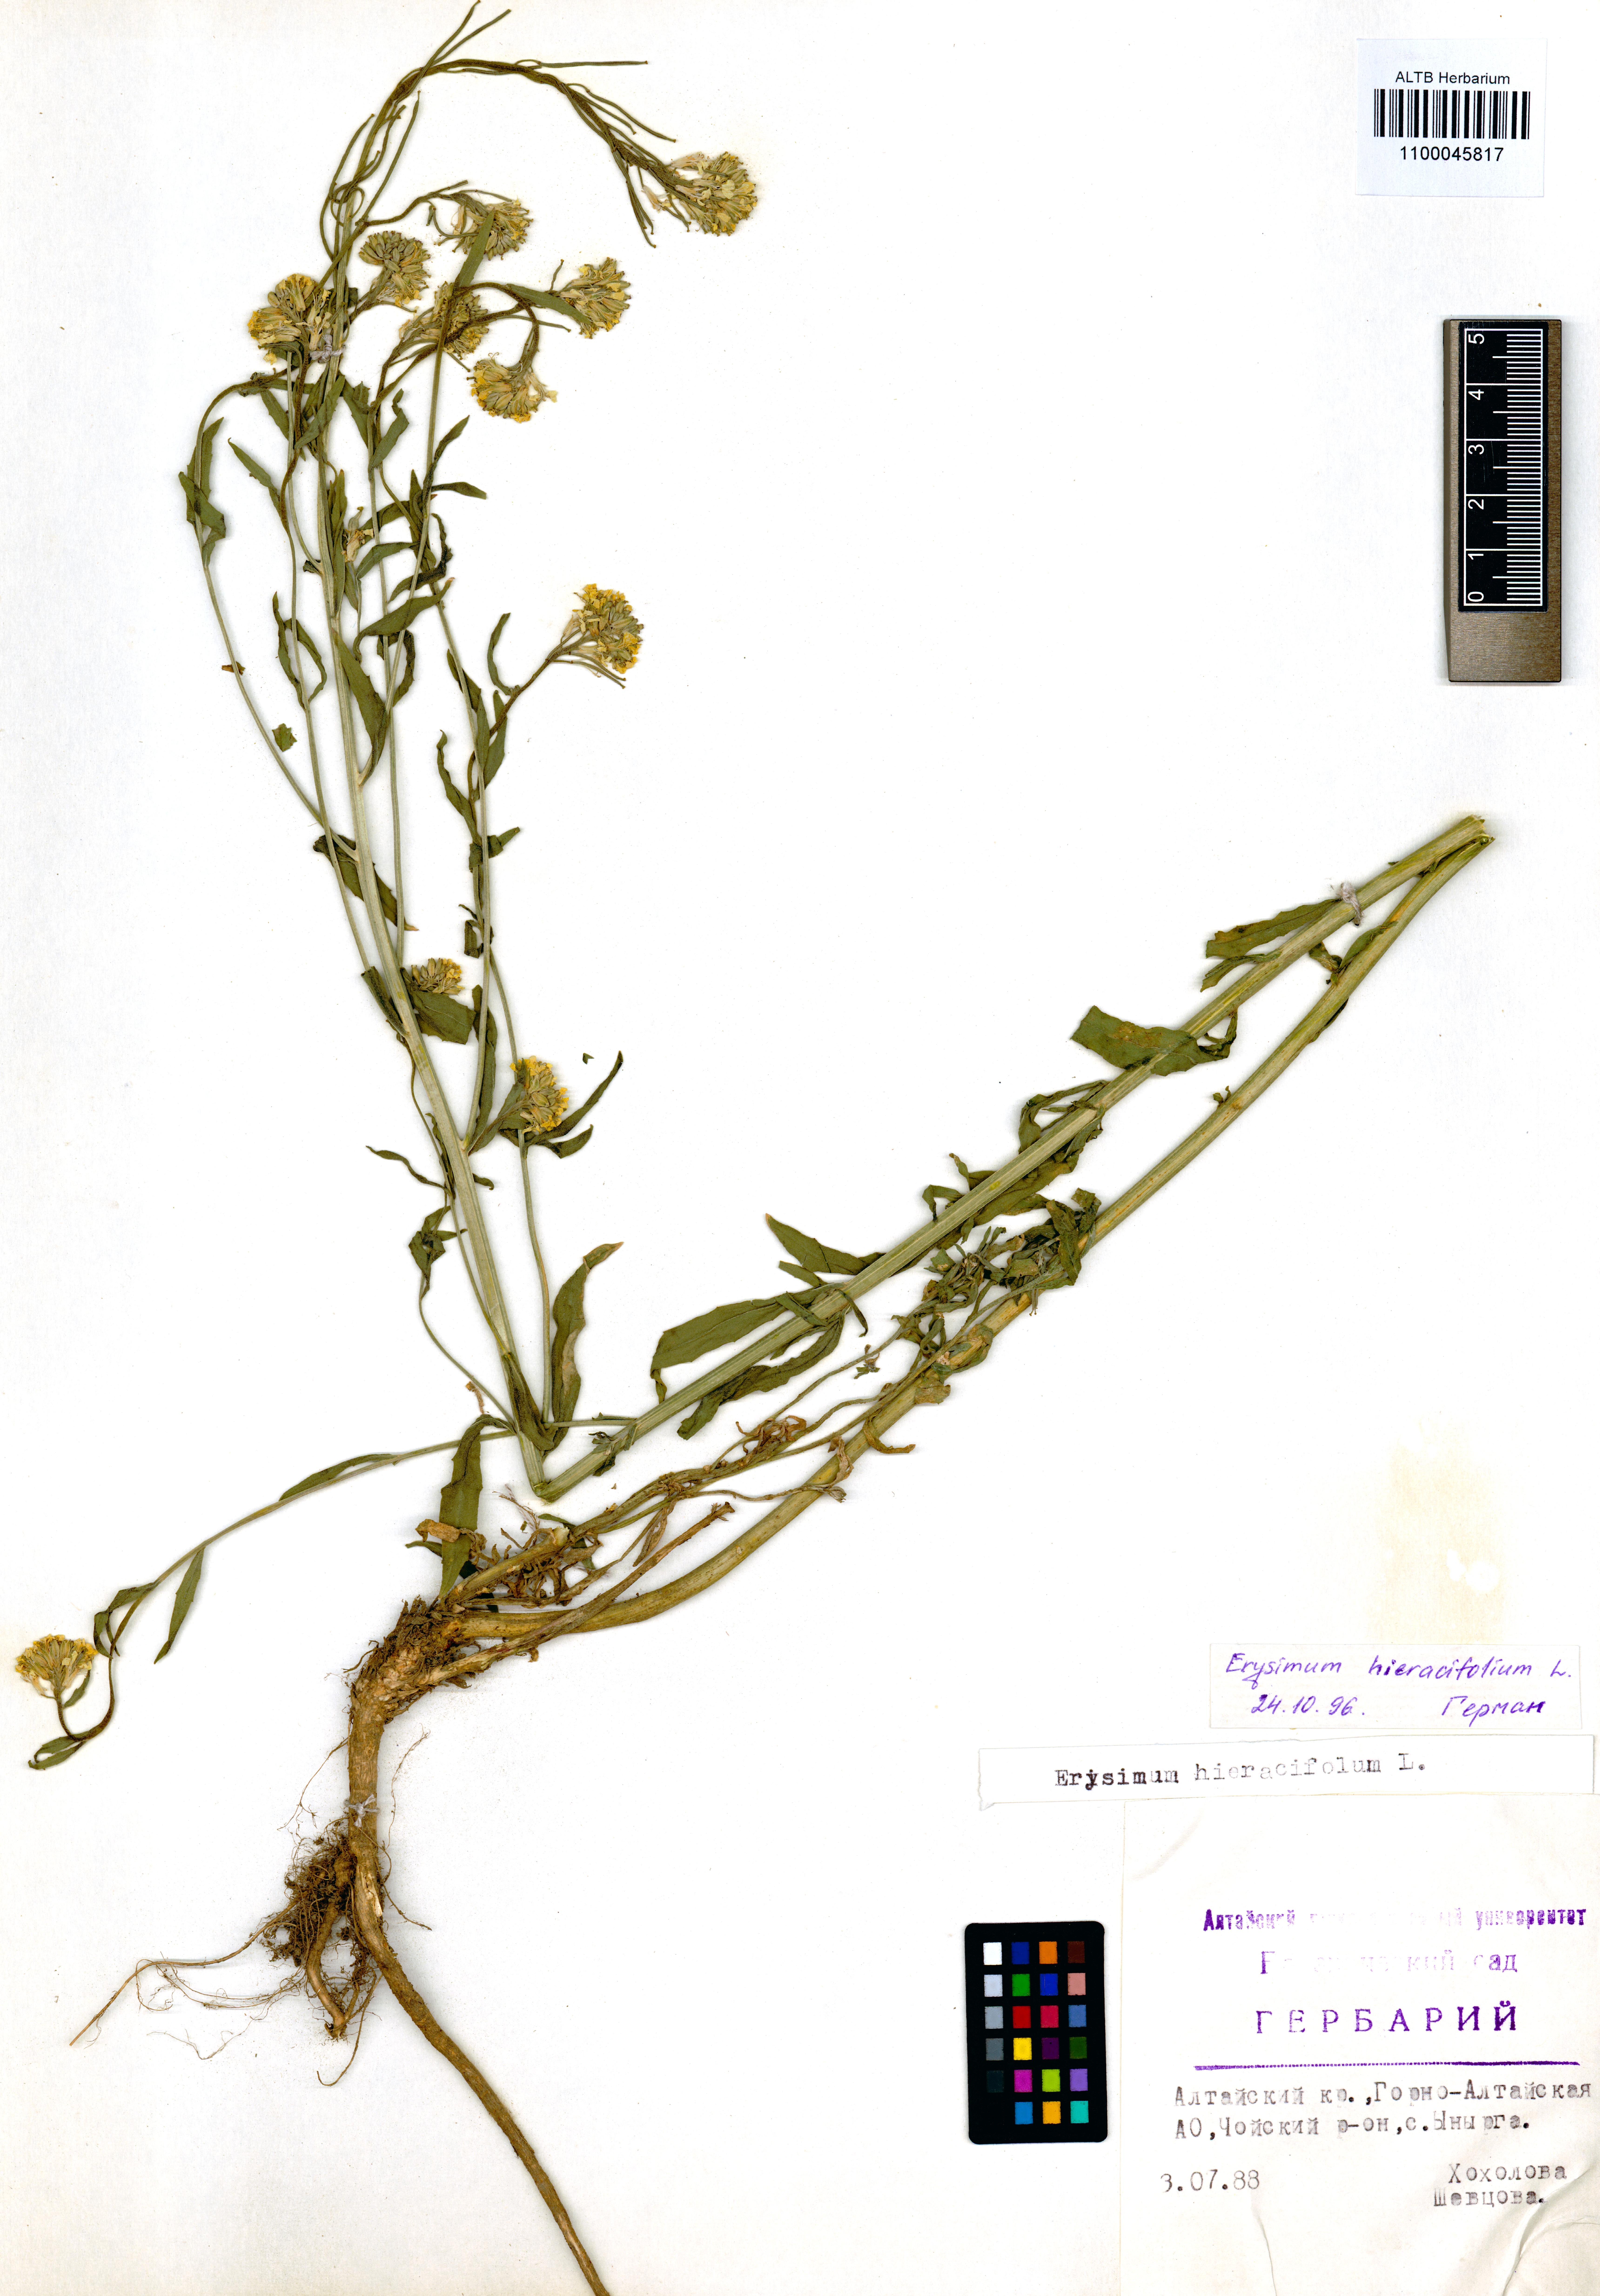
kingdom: Plantae
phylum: Tracheophyta
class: Magnoliopsida
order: Brassicales
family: Brassicaceae
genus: Erysimum
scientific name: Erysimum hieraciifolium
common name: European wallflower
